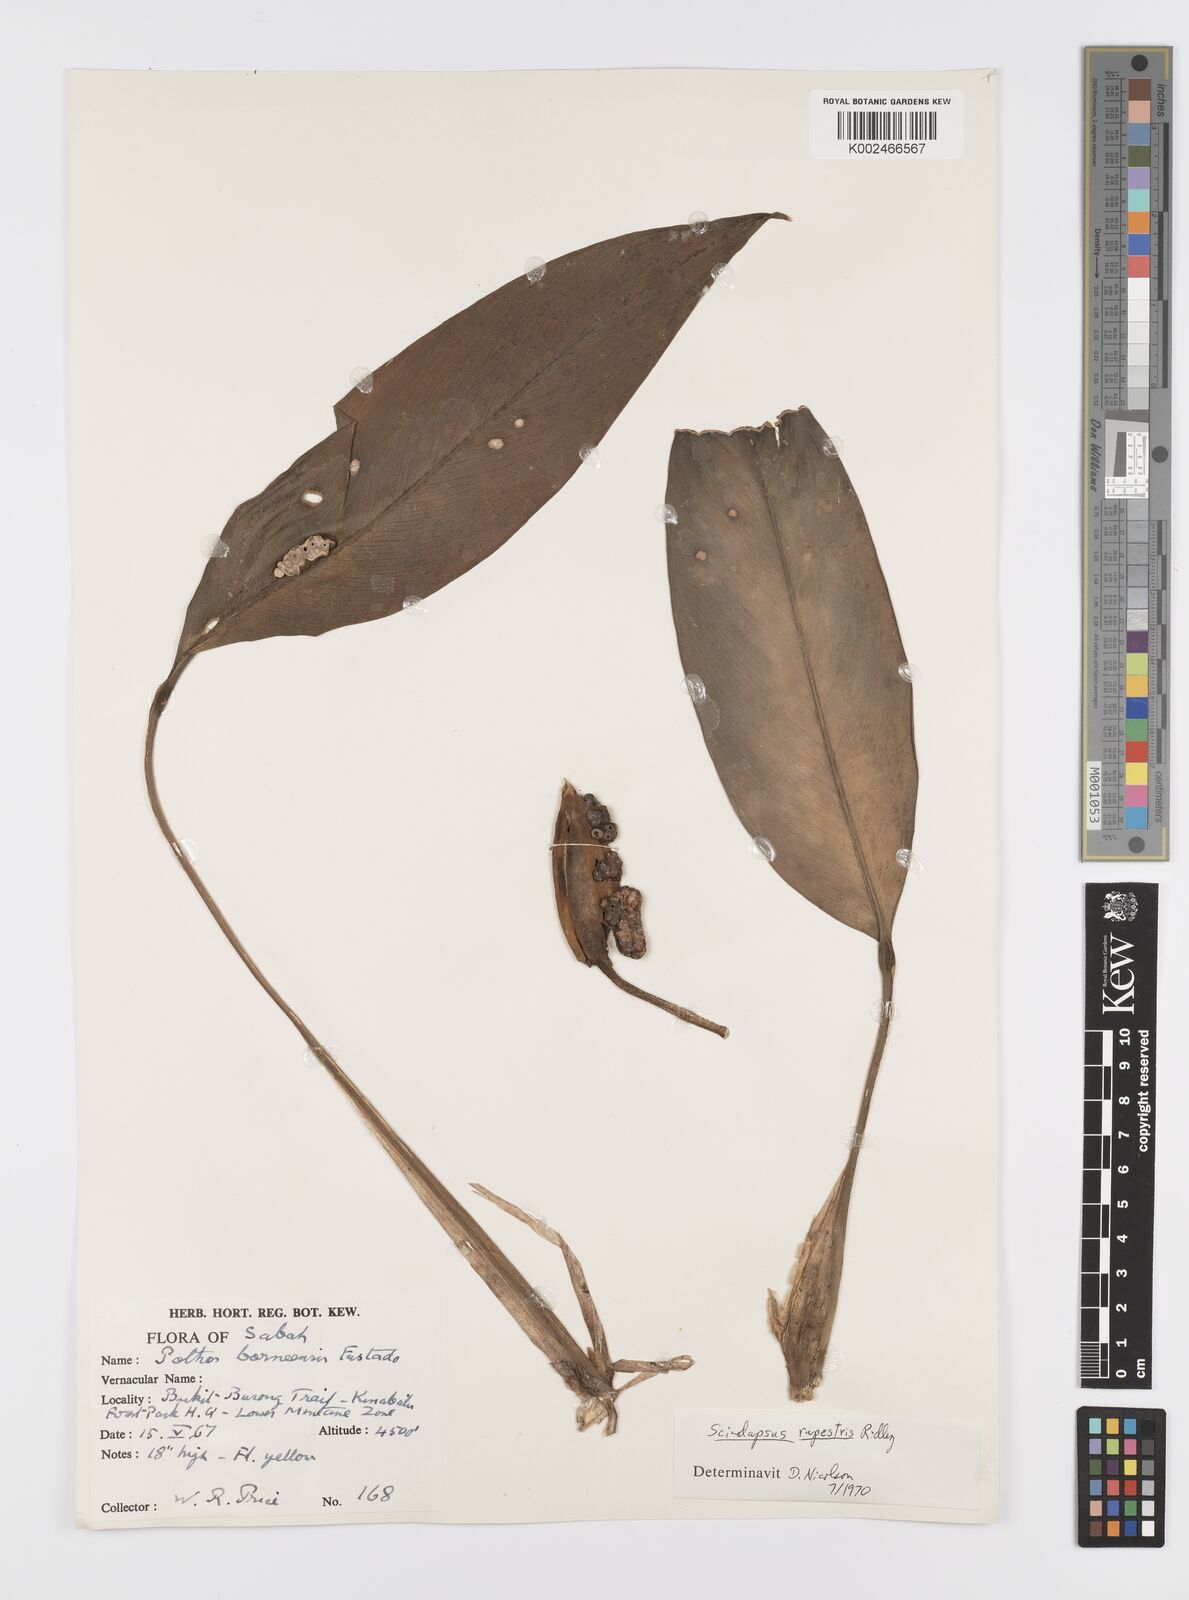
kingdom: Plantae
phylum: Tracheophyta
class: Liliopsida
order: Alismatales
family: Araceae
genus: Scindapsus
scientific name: Scindapsus coriaceus
